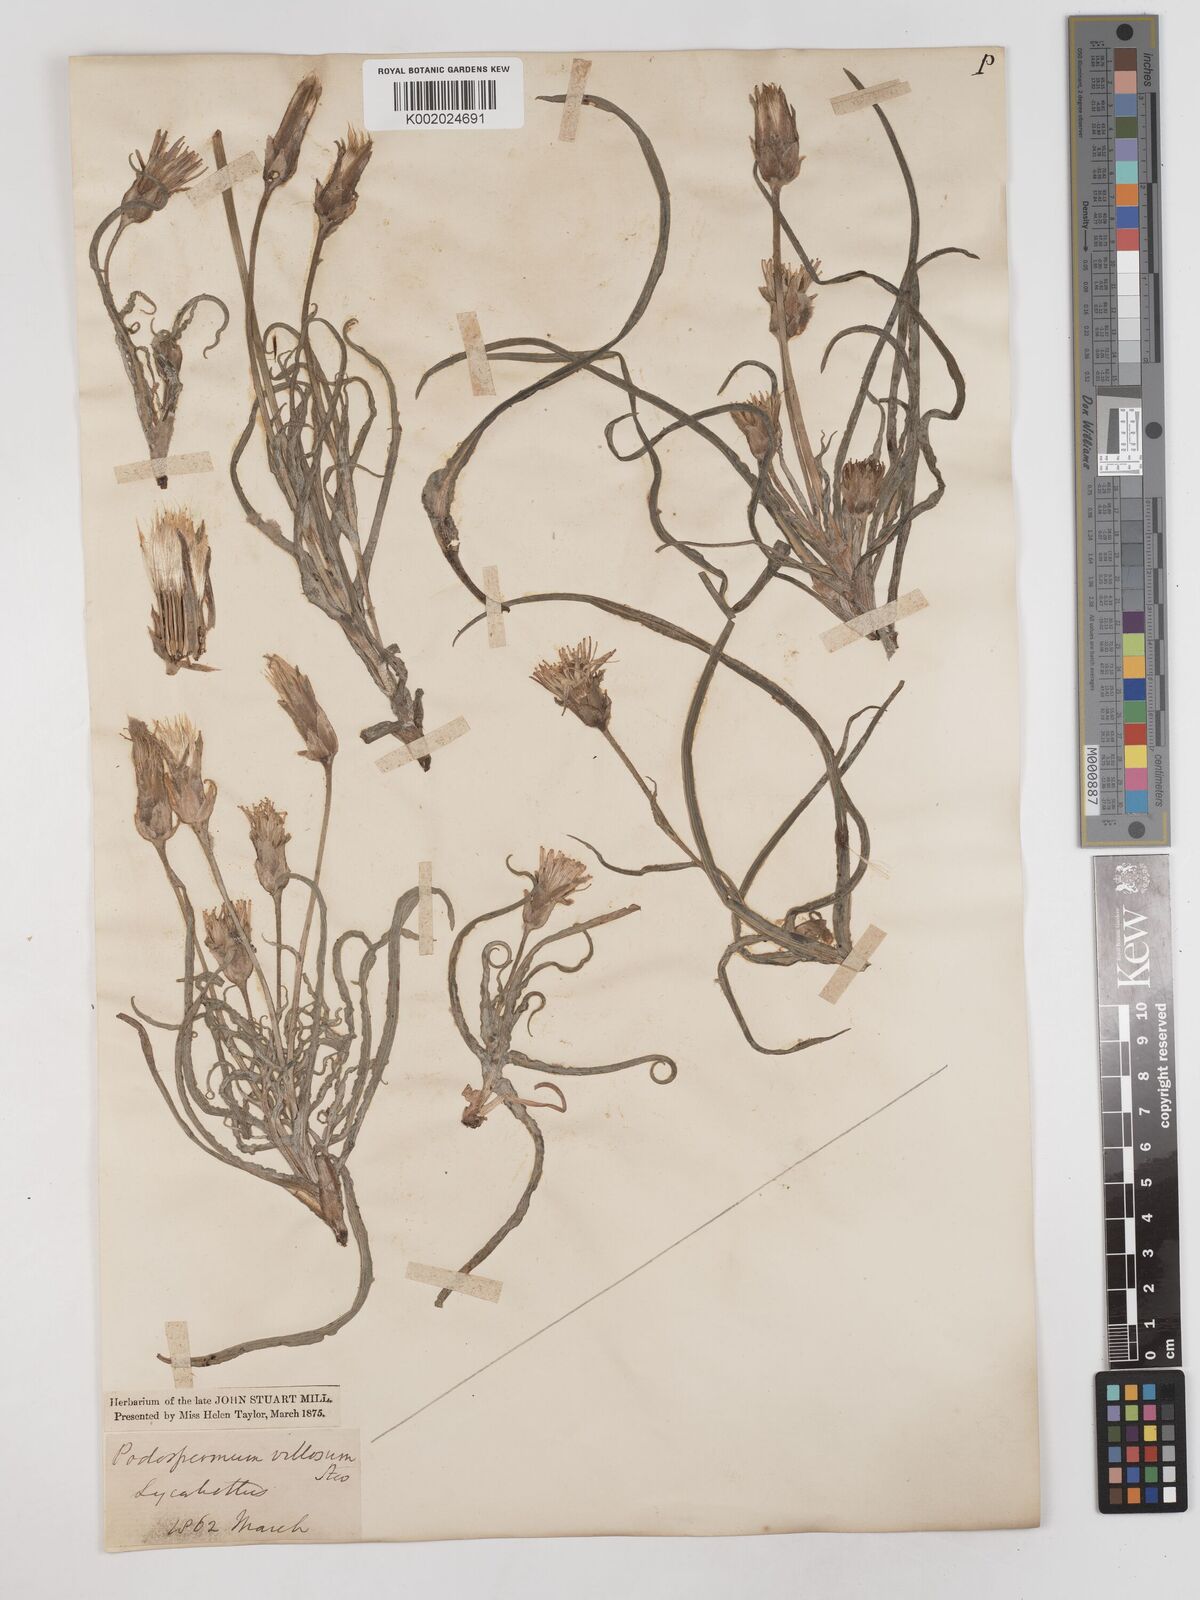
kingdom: Plantae
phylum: Tracheophyta
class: Magnoliopsida
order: Asterales
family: Asteraceae
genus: Candollea
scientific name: Candollea mollis
